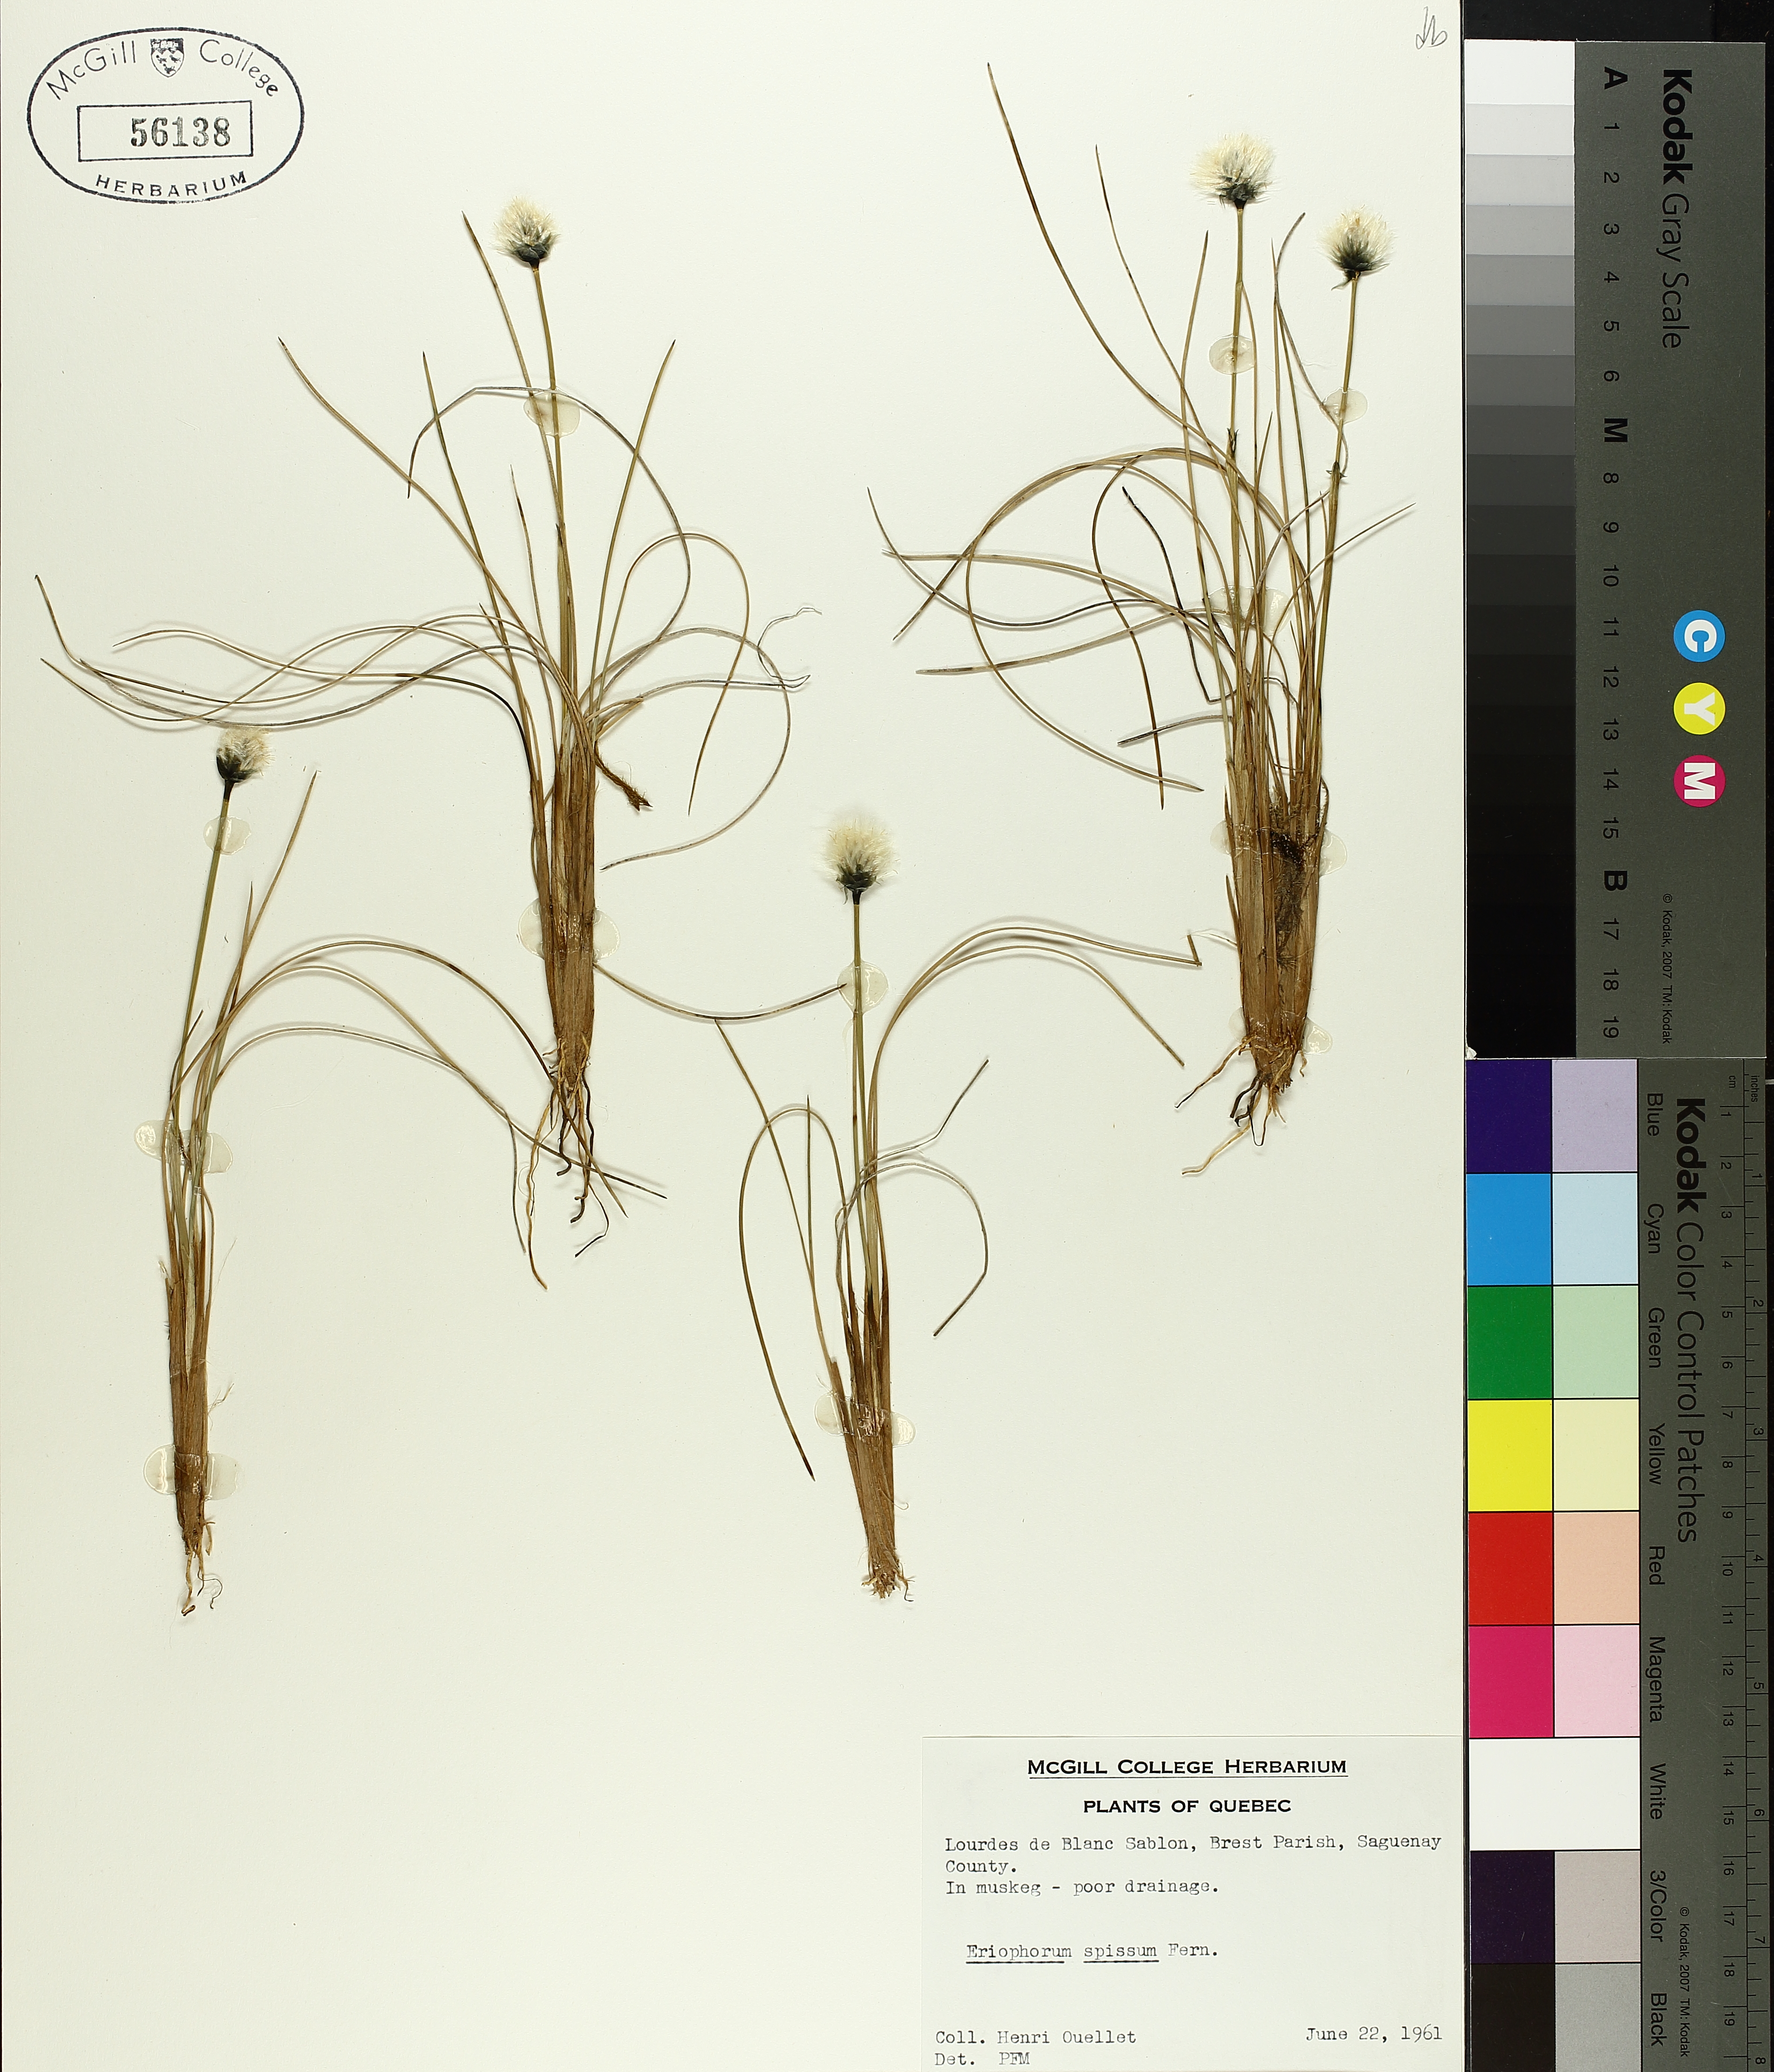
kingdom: Plantae
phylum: Tracheophyta
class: Liliopsida
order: Poales
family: Cyperaceae
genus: Eriophorum
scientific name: Eriophorum vaginatum
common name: Hare's-tail cottongrass
